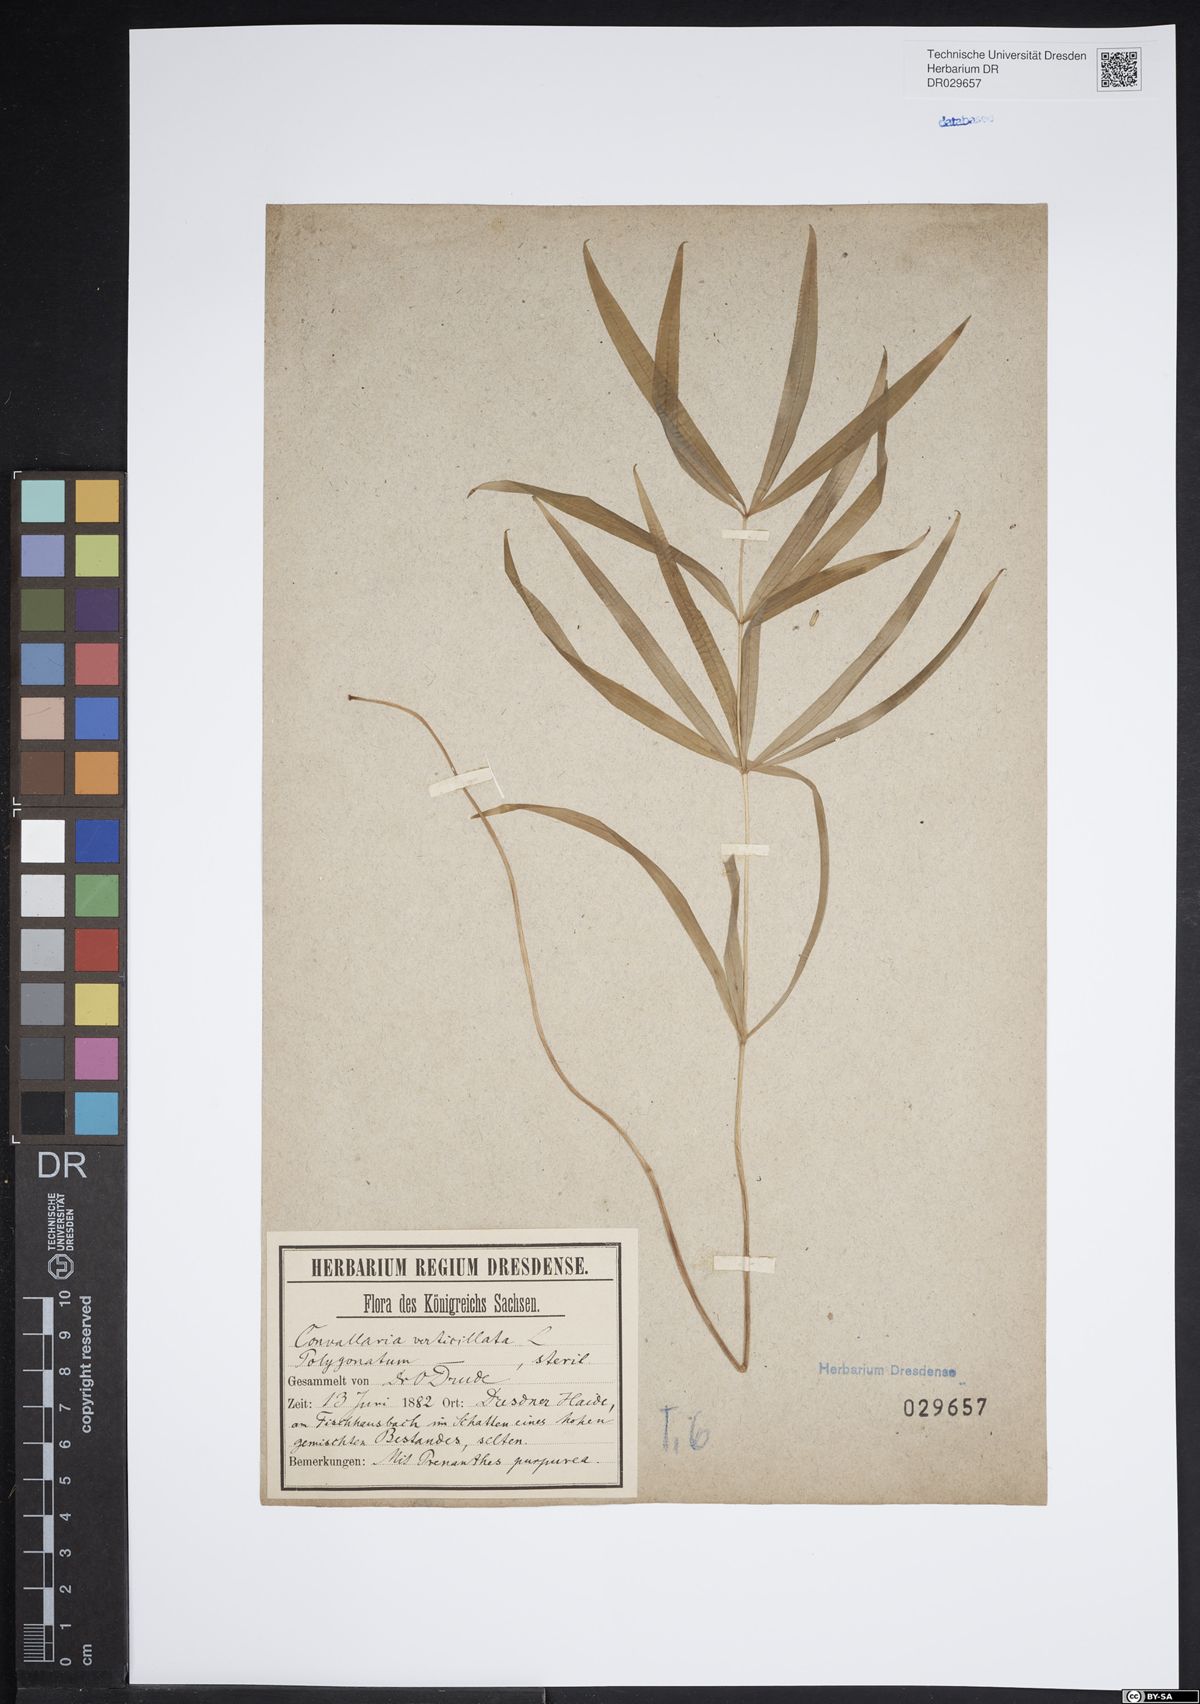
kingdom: Plantae
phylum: Tracheophyta
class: Liliopsida
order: Asparagales
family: Asparagaceae
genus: Polygonatum
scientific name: Polygonatum verticillatum
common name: Whorled solomon's-seal
